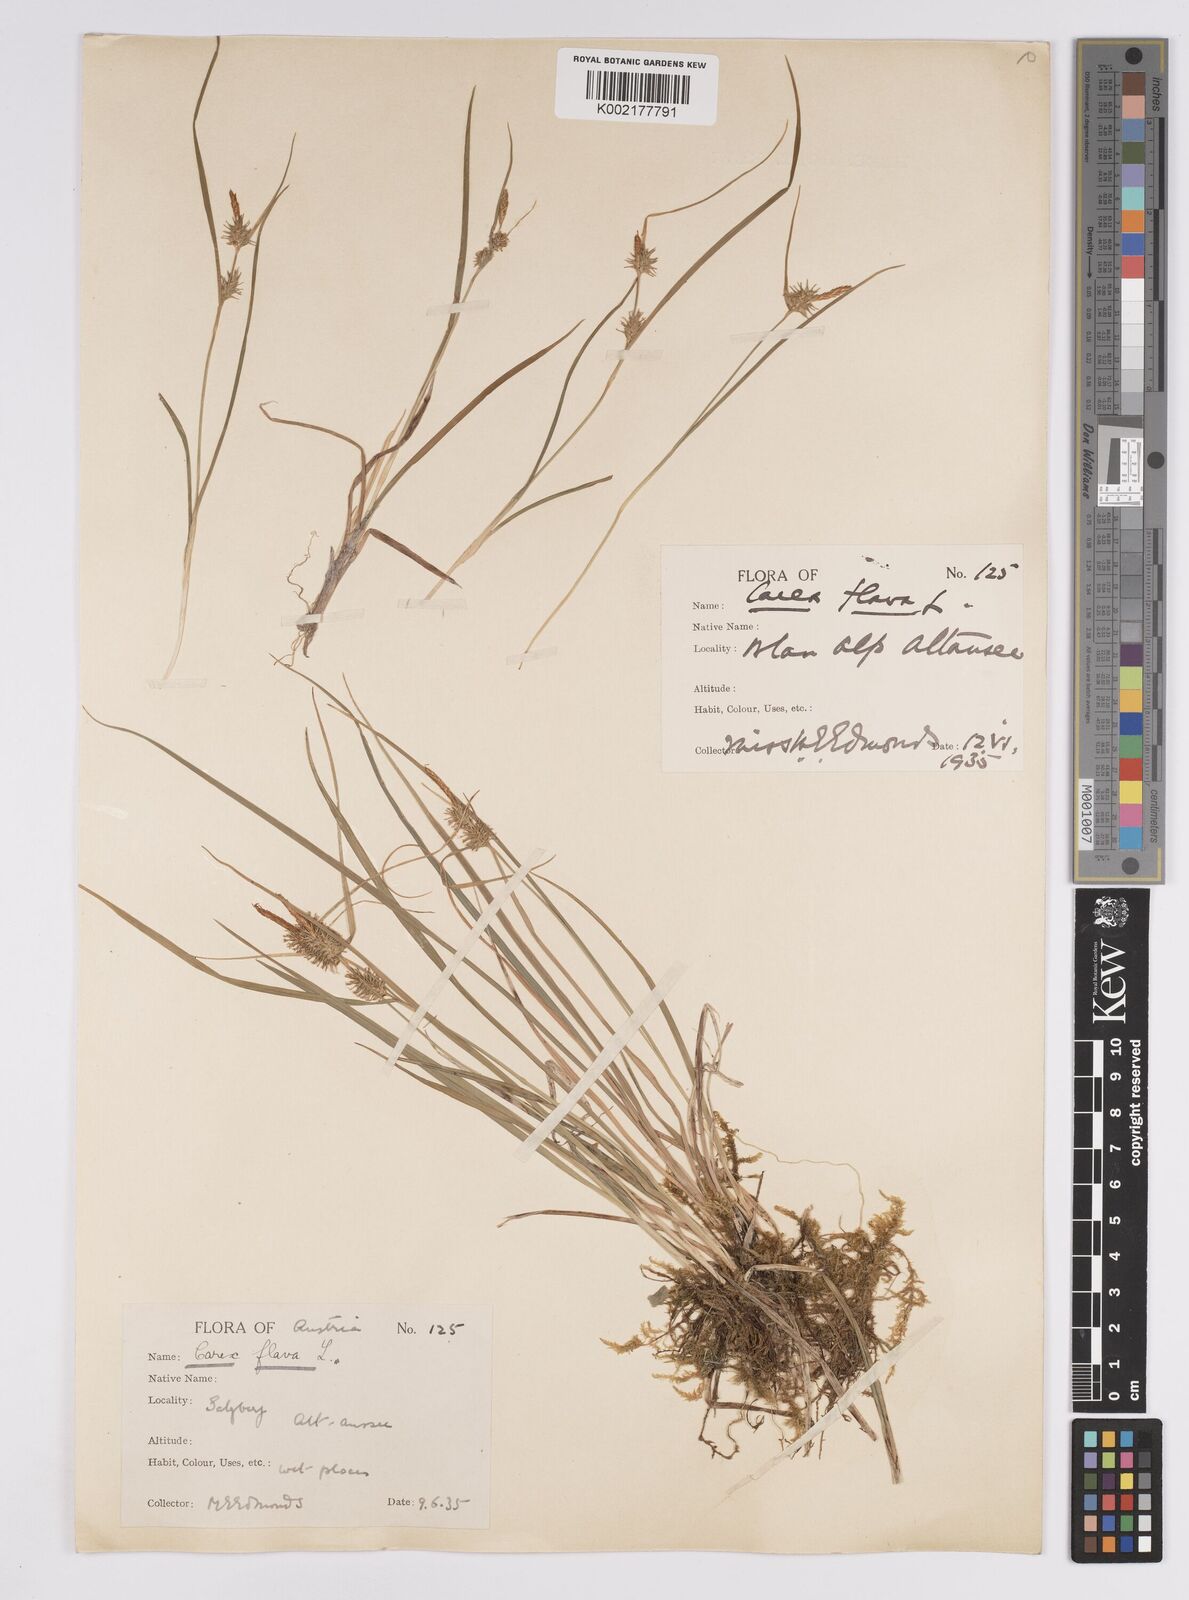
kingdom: Plantae
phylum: Tracheophyta
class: Liliopsida
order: Poales
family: Cyperaceae
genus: Carex
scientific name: Carex flava
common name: Large yellow-sedge
